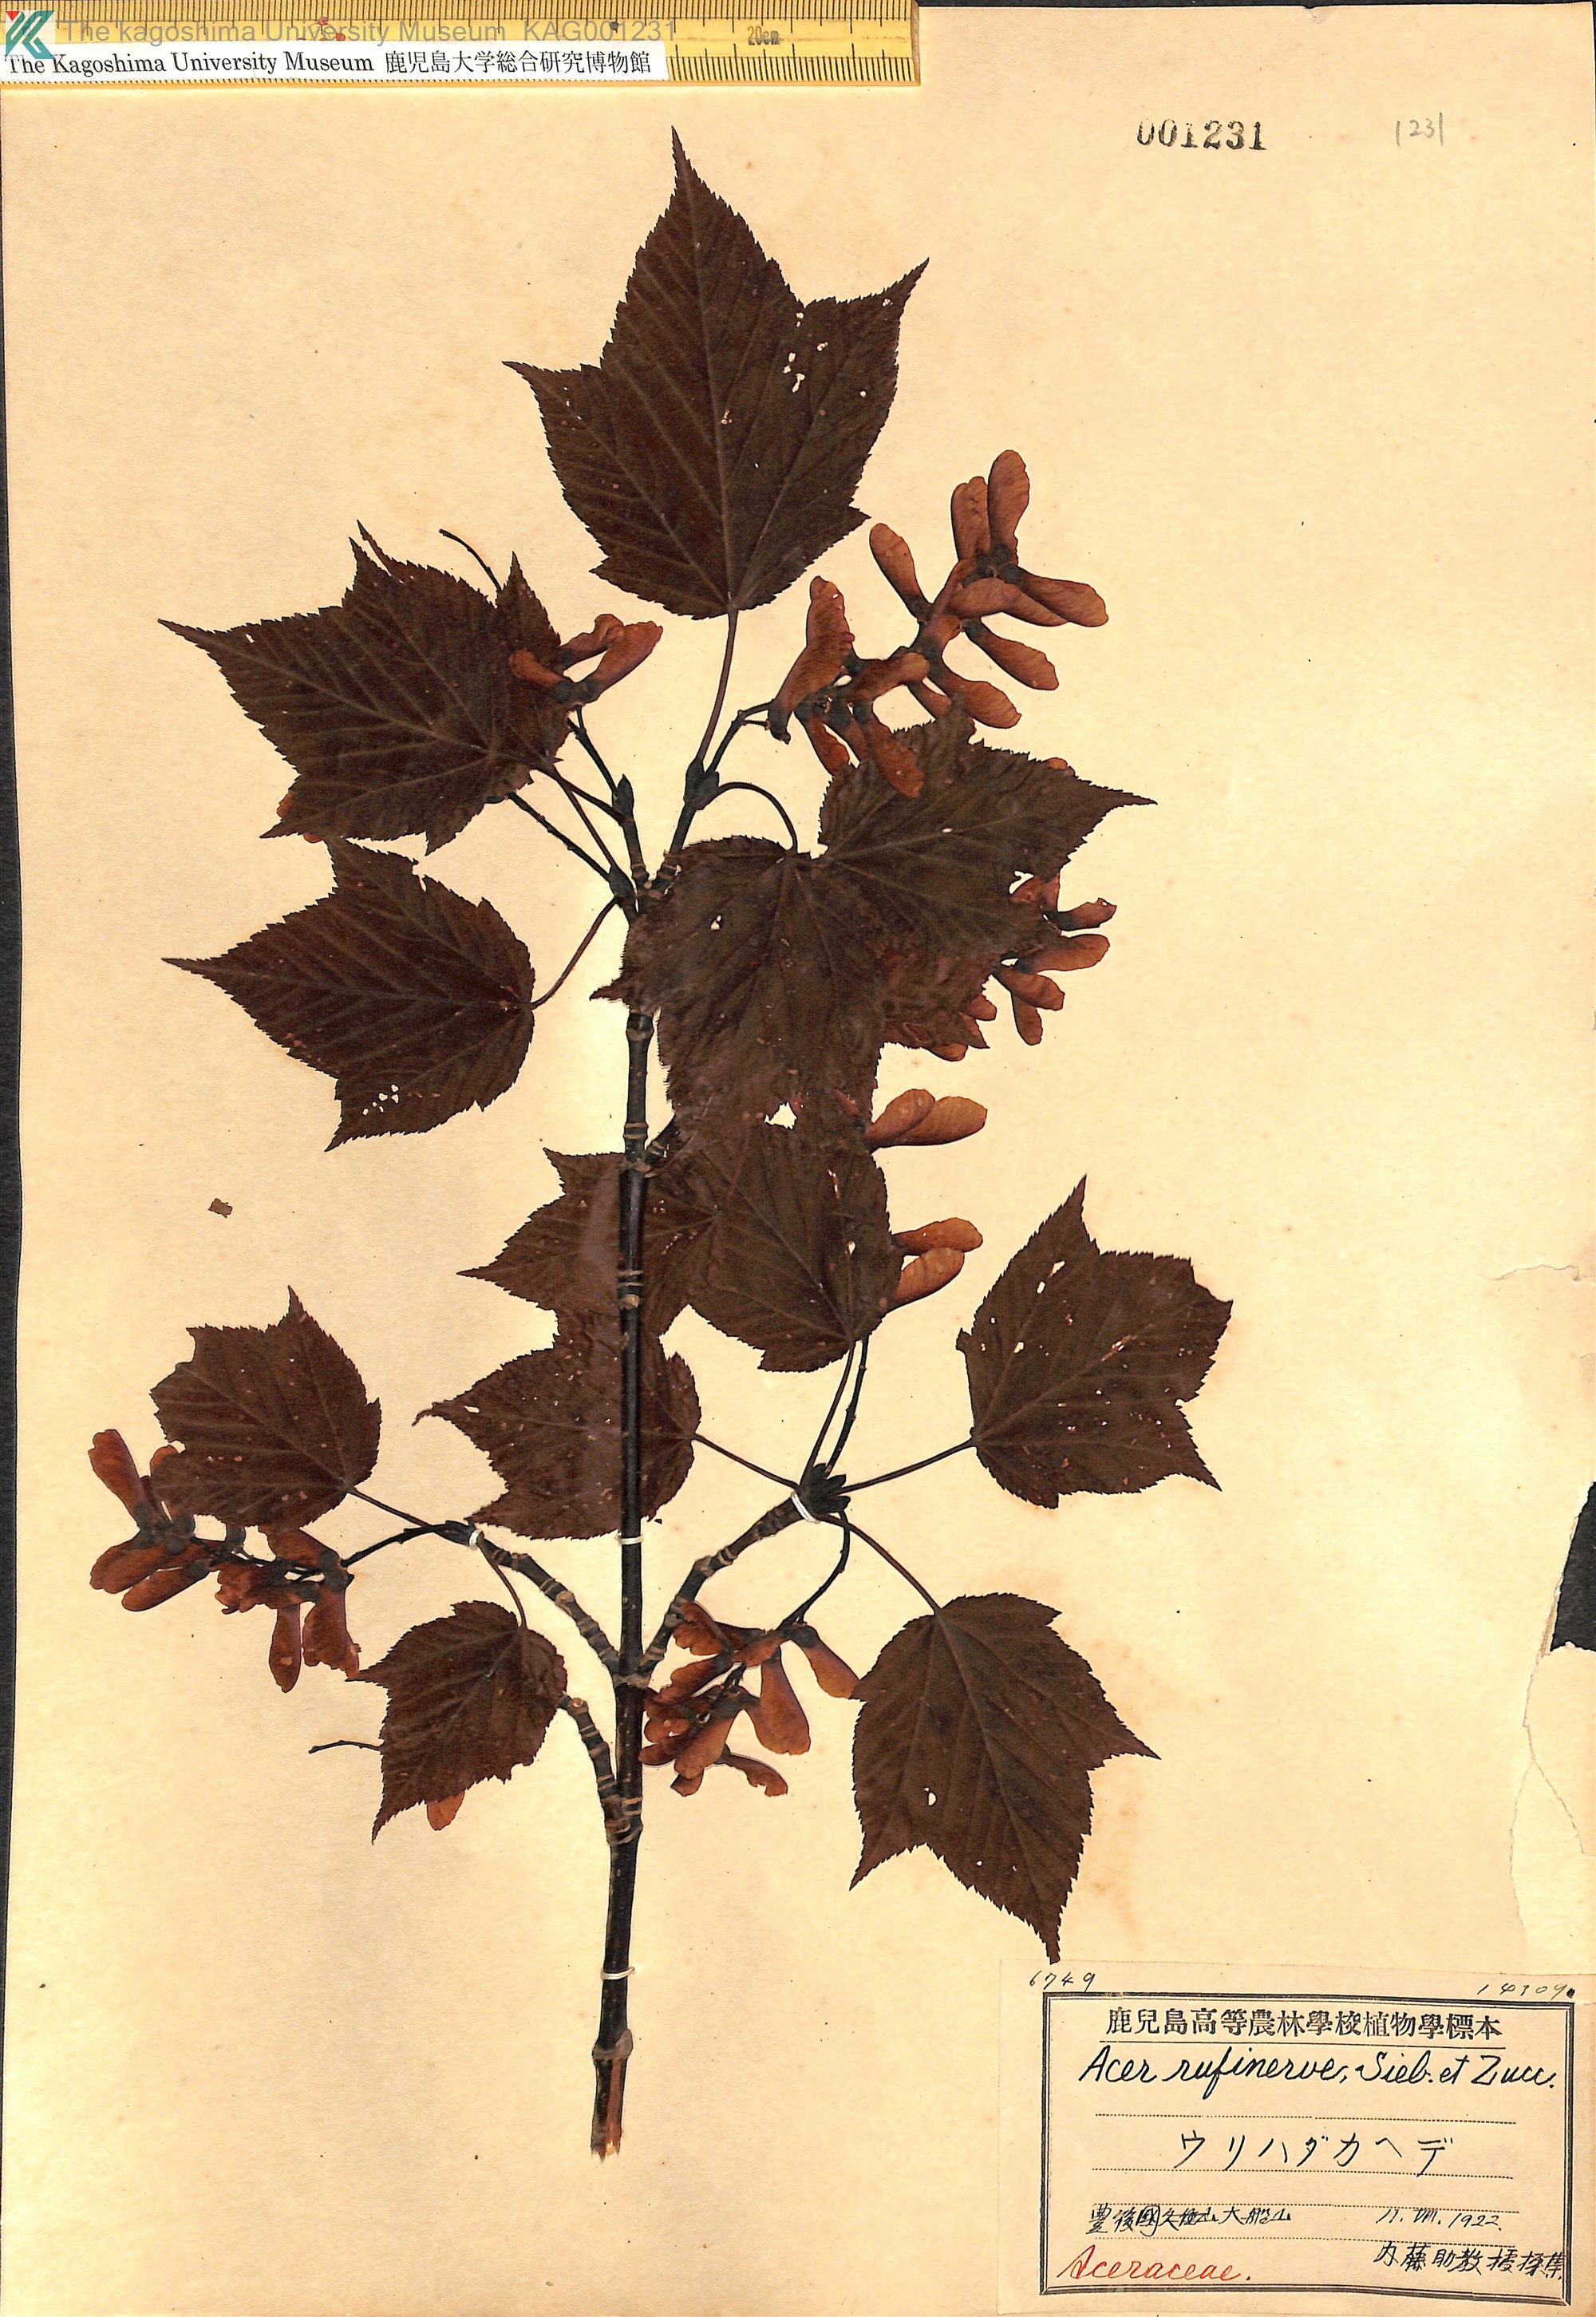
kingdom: Plantae
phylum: Tracheophyta
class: Magnoliopsida
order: Sapindales
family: Sapindaceae
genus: Acer
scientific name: Acer rufinerve
